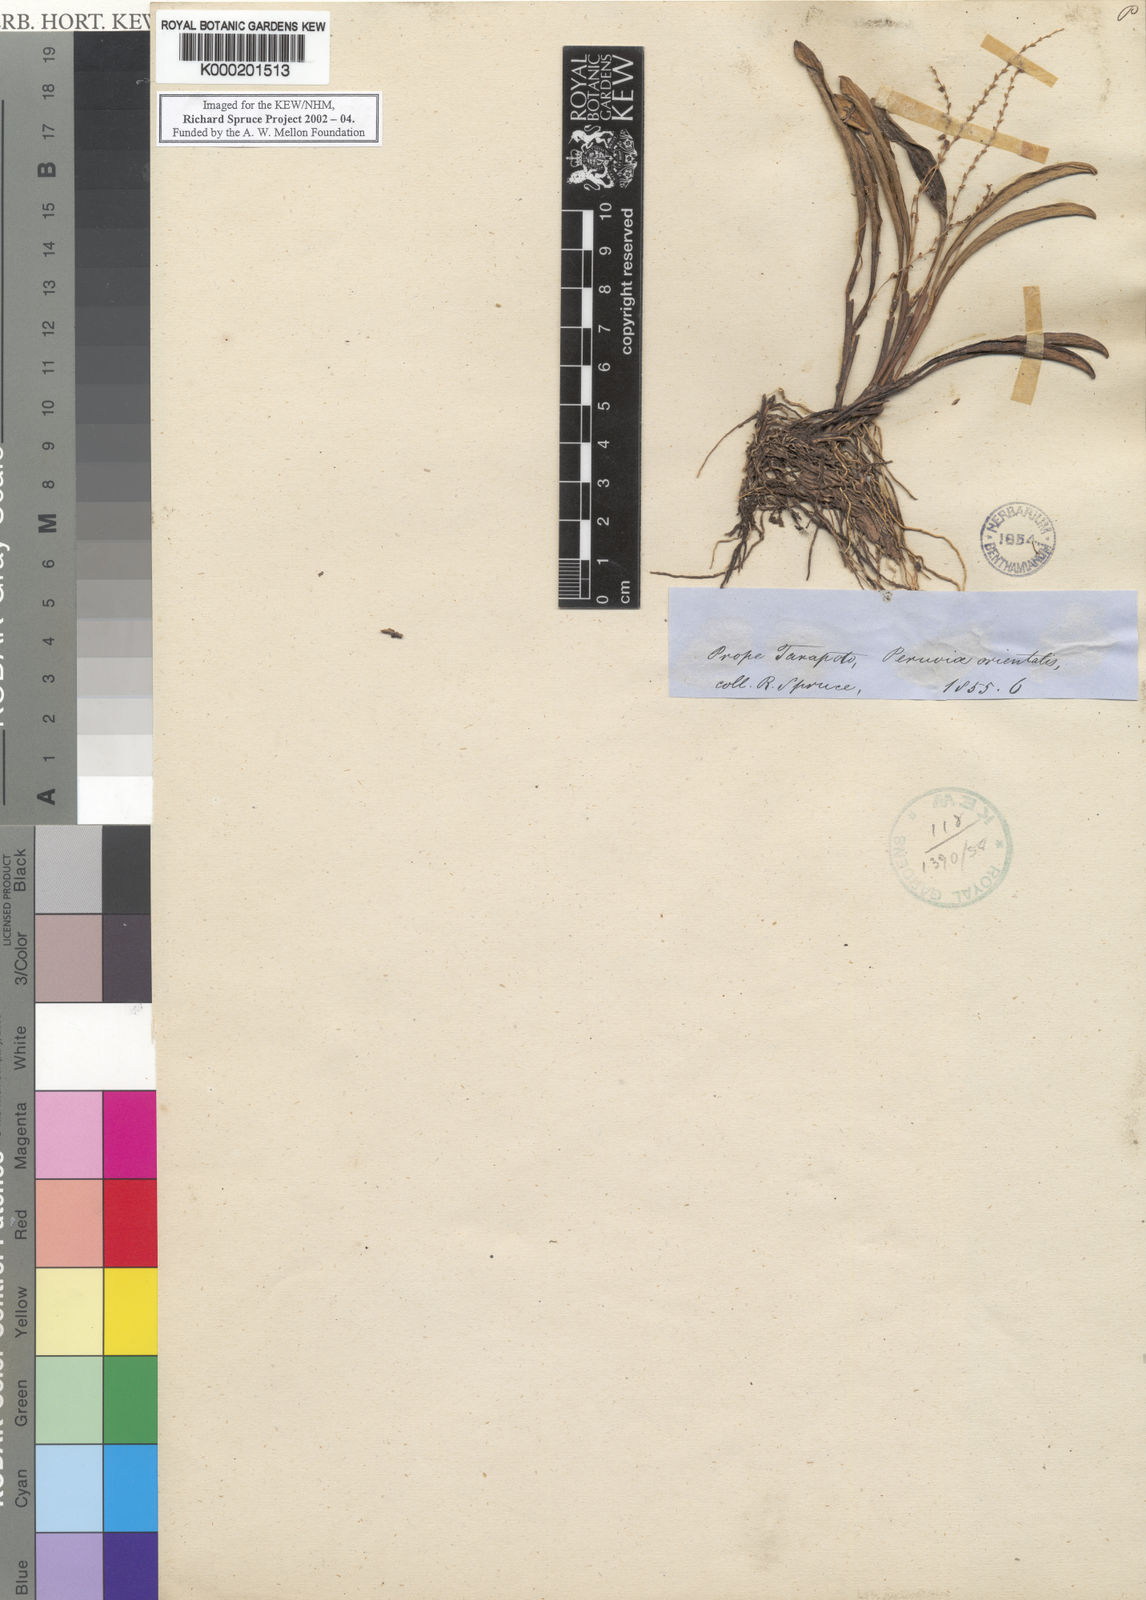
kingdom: Plantae
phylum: Tracheophyta
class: Liliopsida
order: Asparagales
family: Orchidaceae
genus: Stelis
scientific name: Stelis
